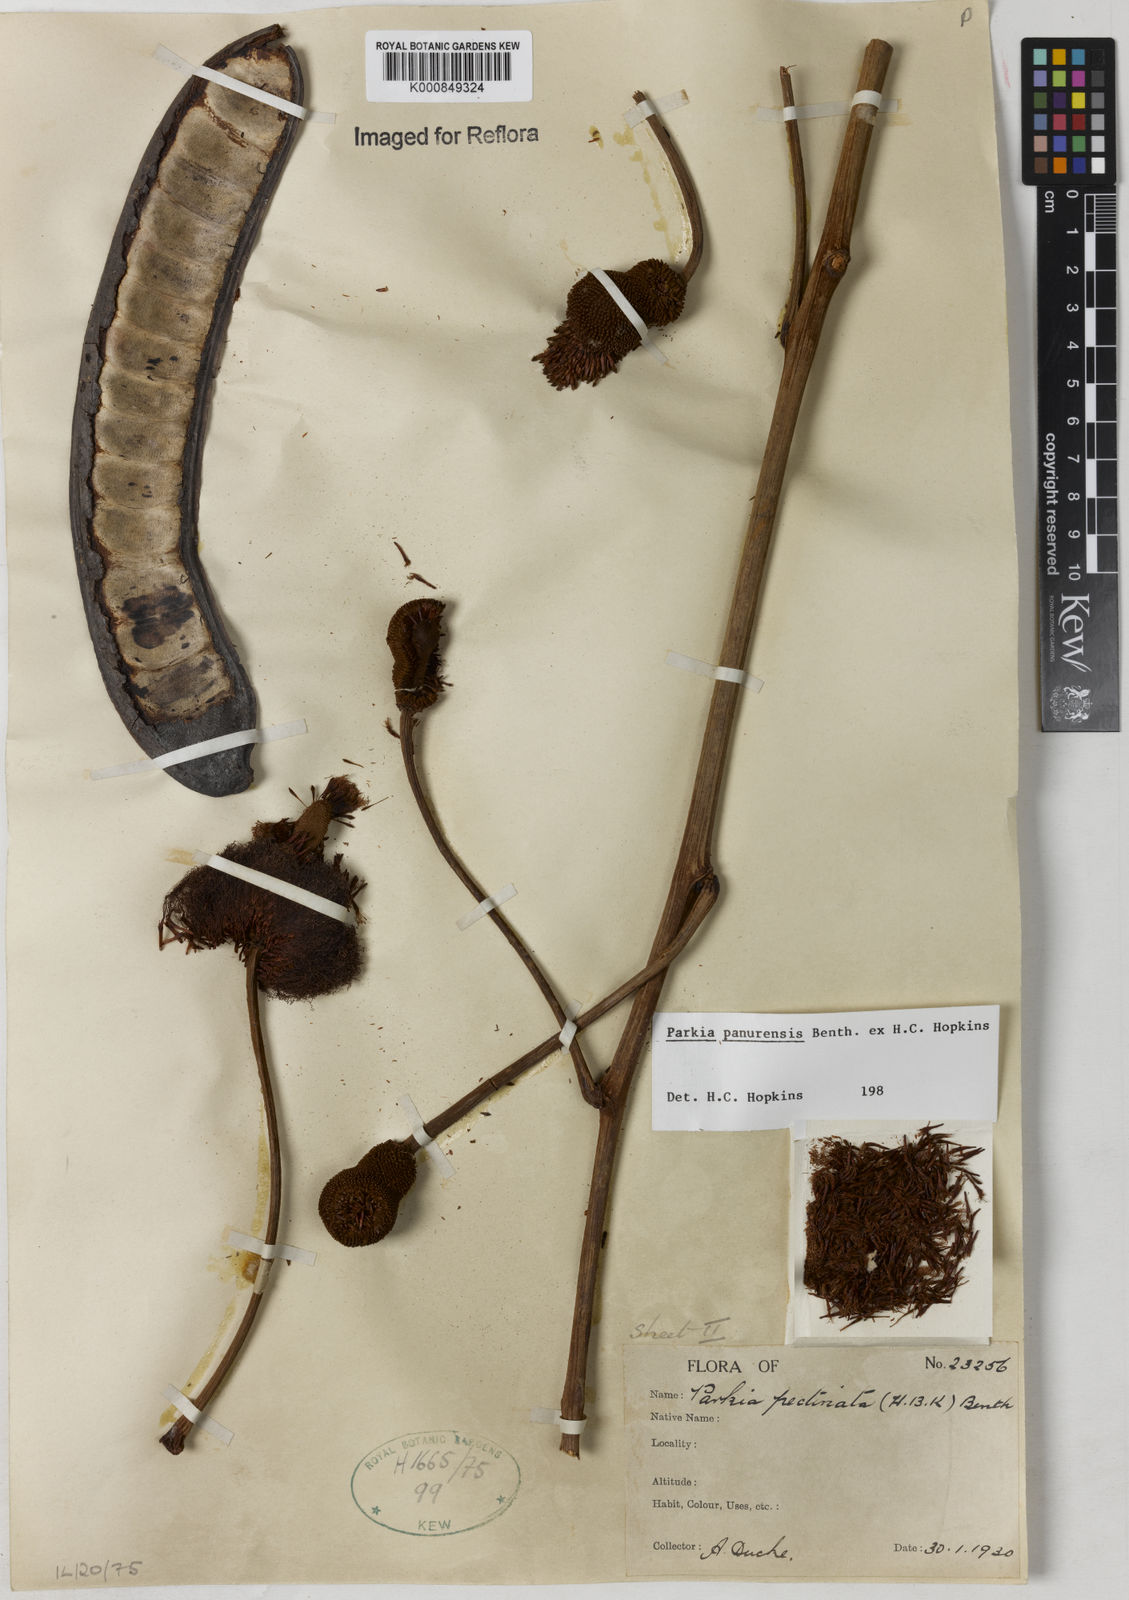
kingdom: Plantae
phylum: Tracheophyta
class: Magnoliopsida
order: Fabales
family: Fabaceae
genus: Parkia
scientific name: Parkia pectinata
